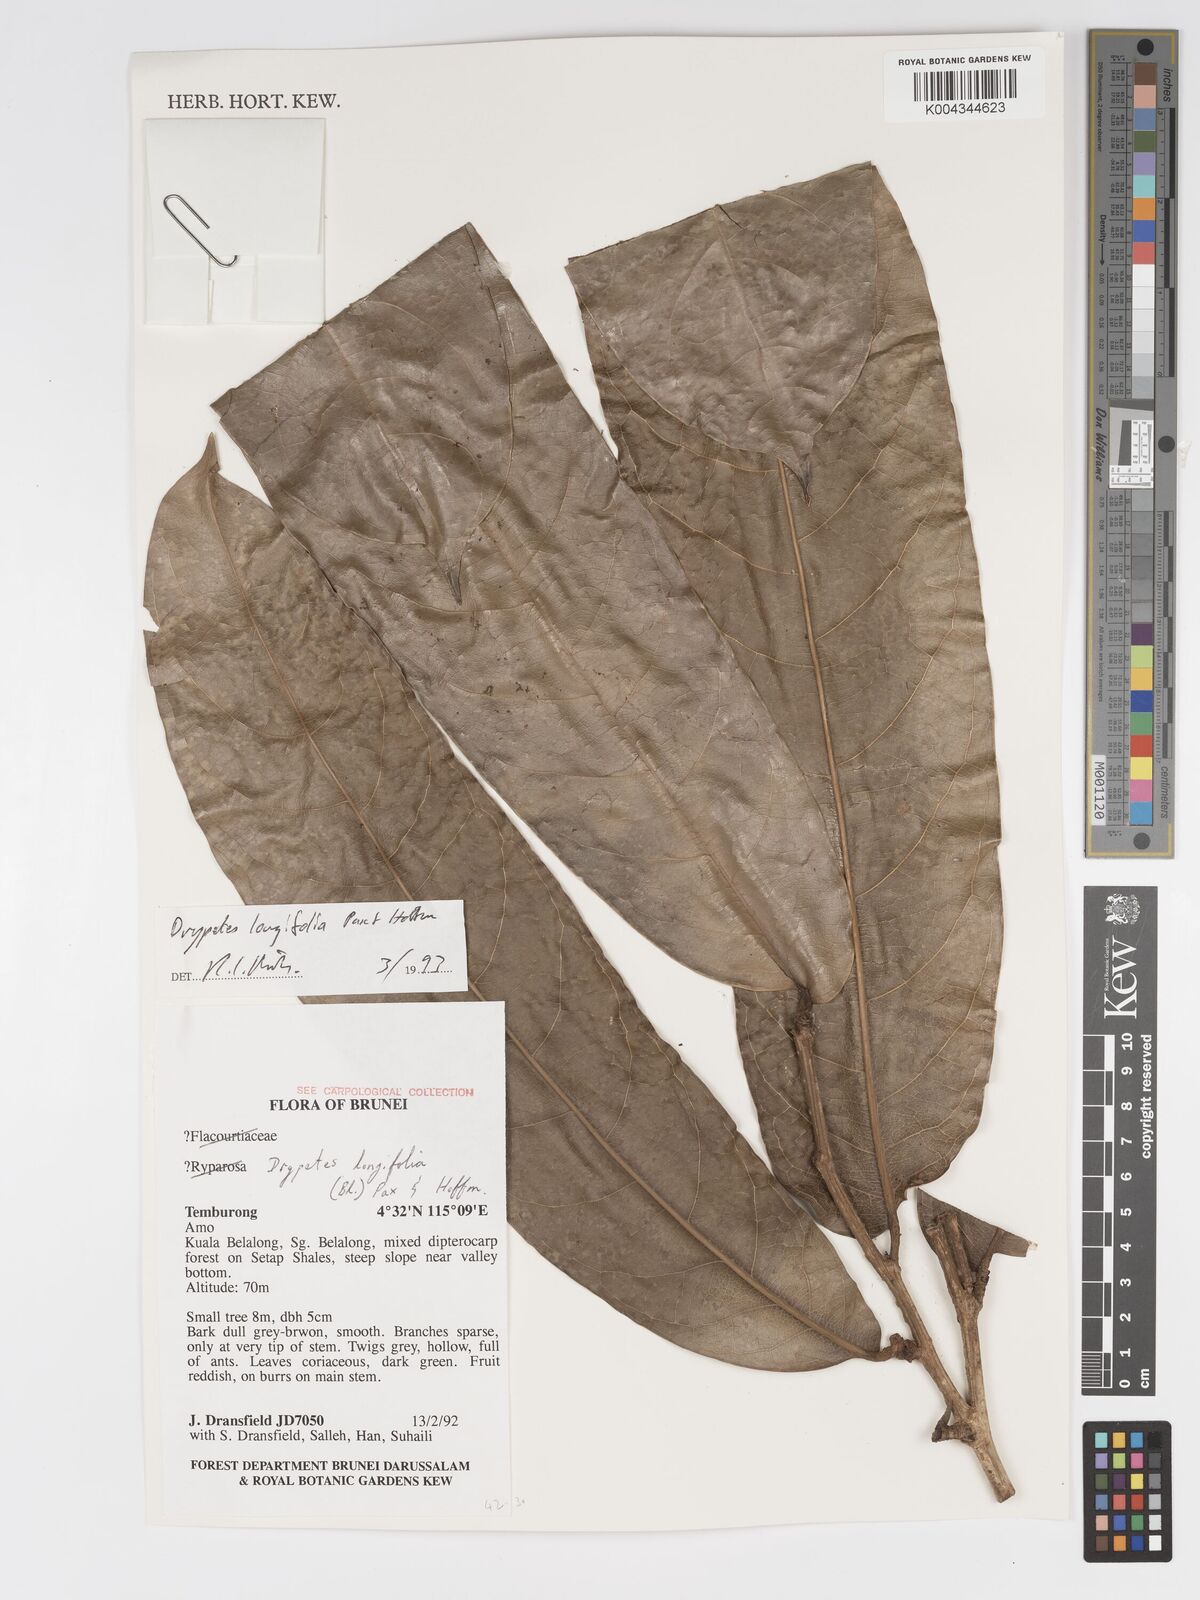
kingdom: Plantae
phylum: Tracheophyta
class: Magnoliopsida
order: Malpighiales
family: Putranjivaceae
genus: Drypetes
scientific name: Drypetes longifolia
